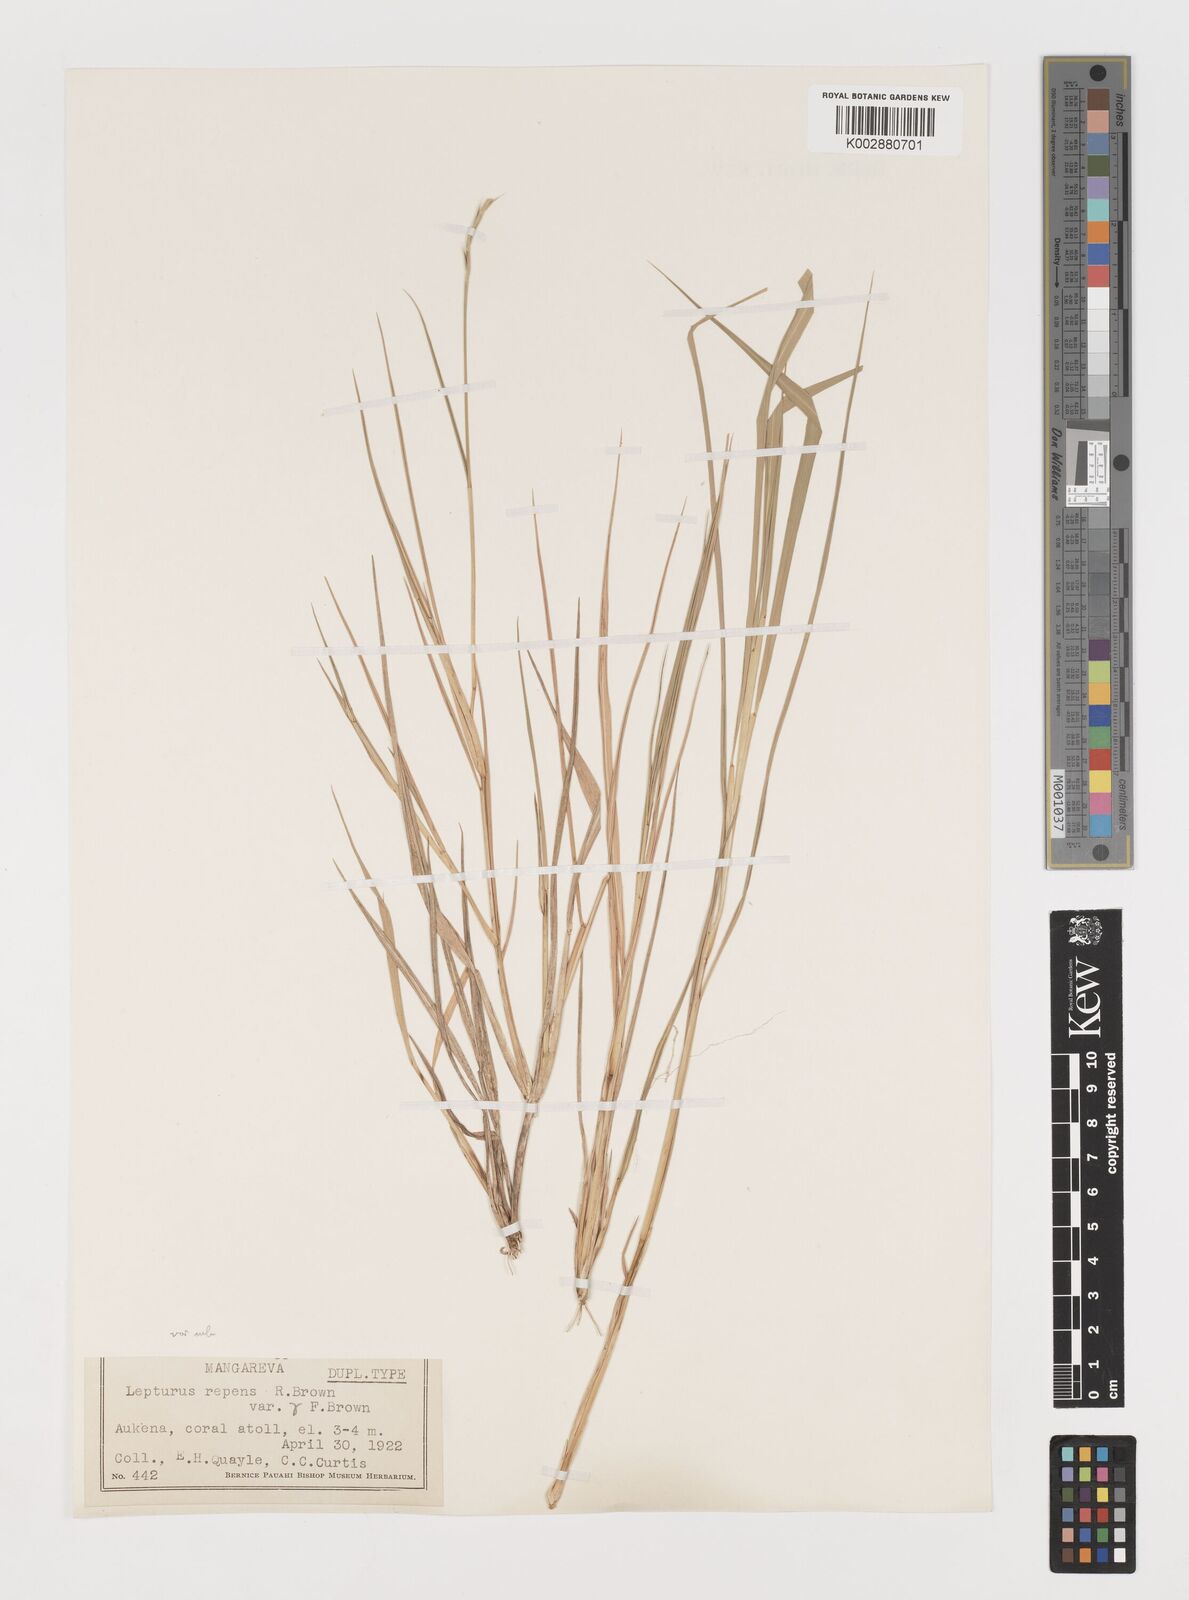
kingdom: Plantae
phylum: Tracheophyta
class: Liliopsida
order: Poales
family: Poaceae
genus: Lepturus
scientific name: Lepturus repens
